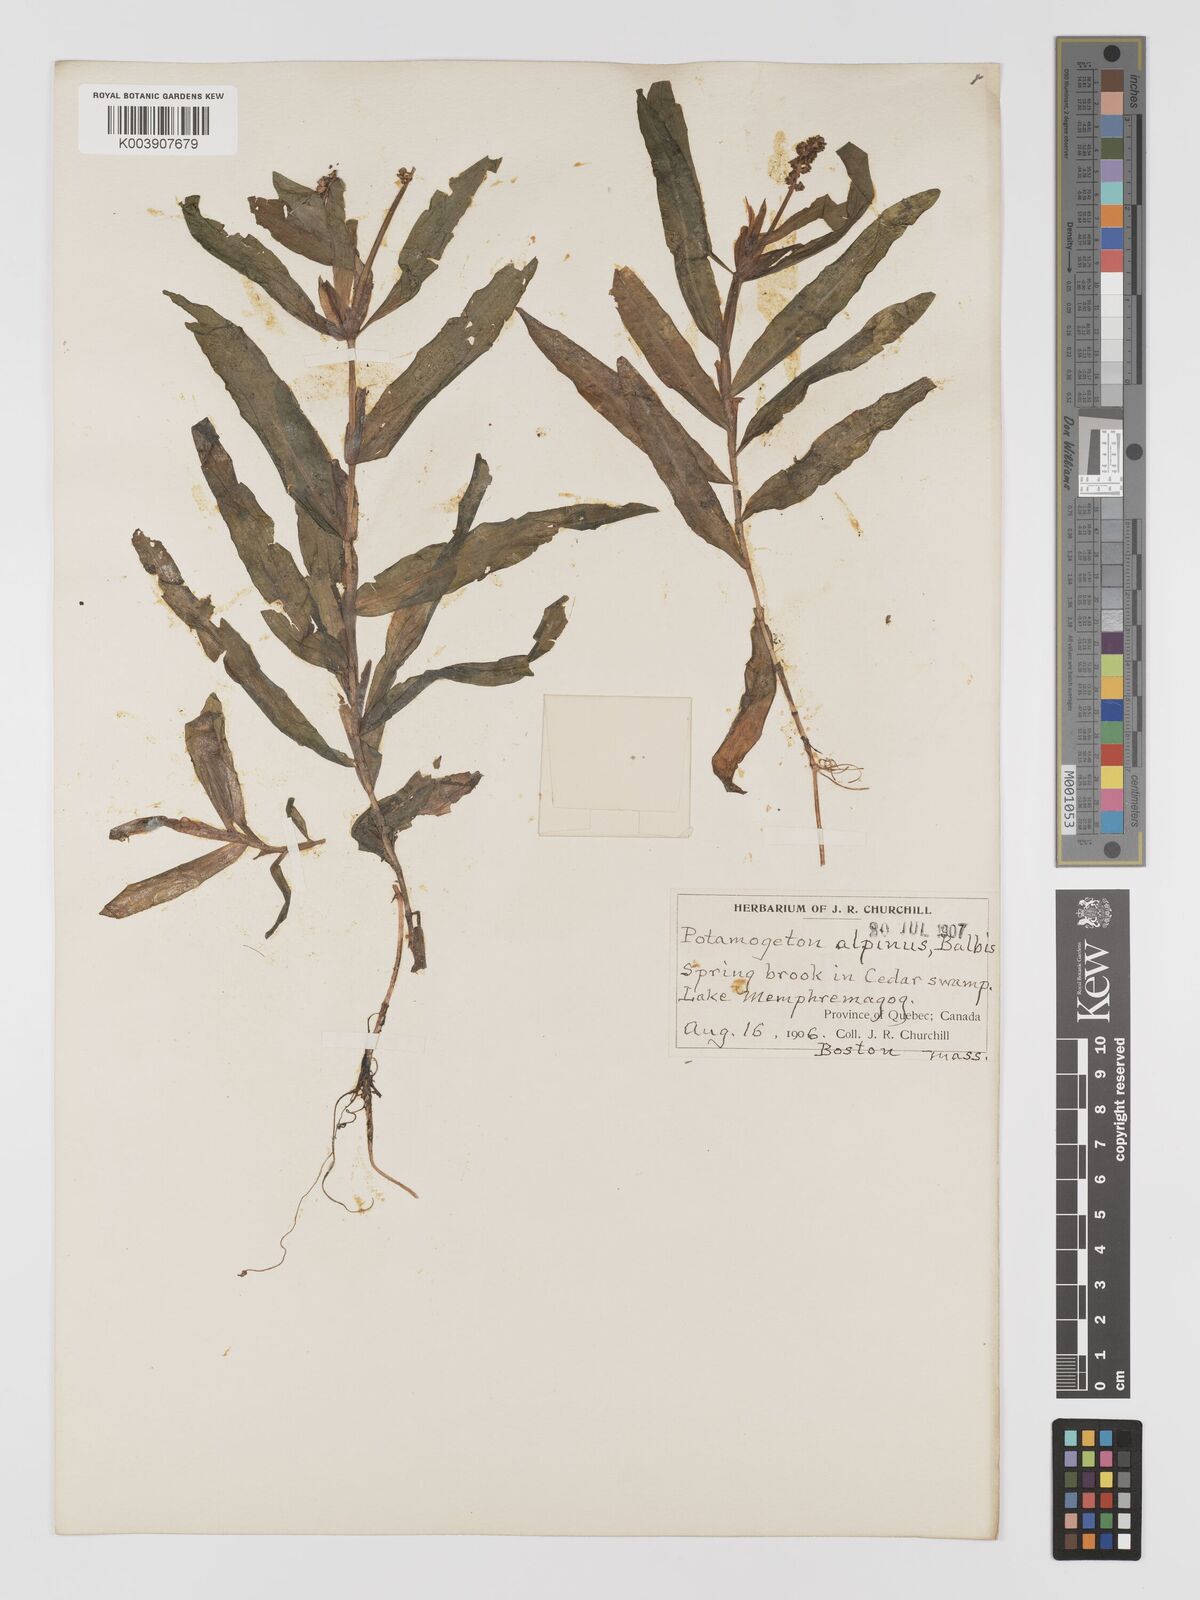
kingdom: Plantae
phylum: Tracheophyta
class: Liliopsida
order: Alismatales
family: Potamogetonaceae
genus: Potamogeton
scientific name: Potamogeton alpinus
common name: Red pondweed
